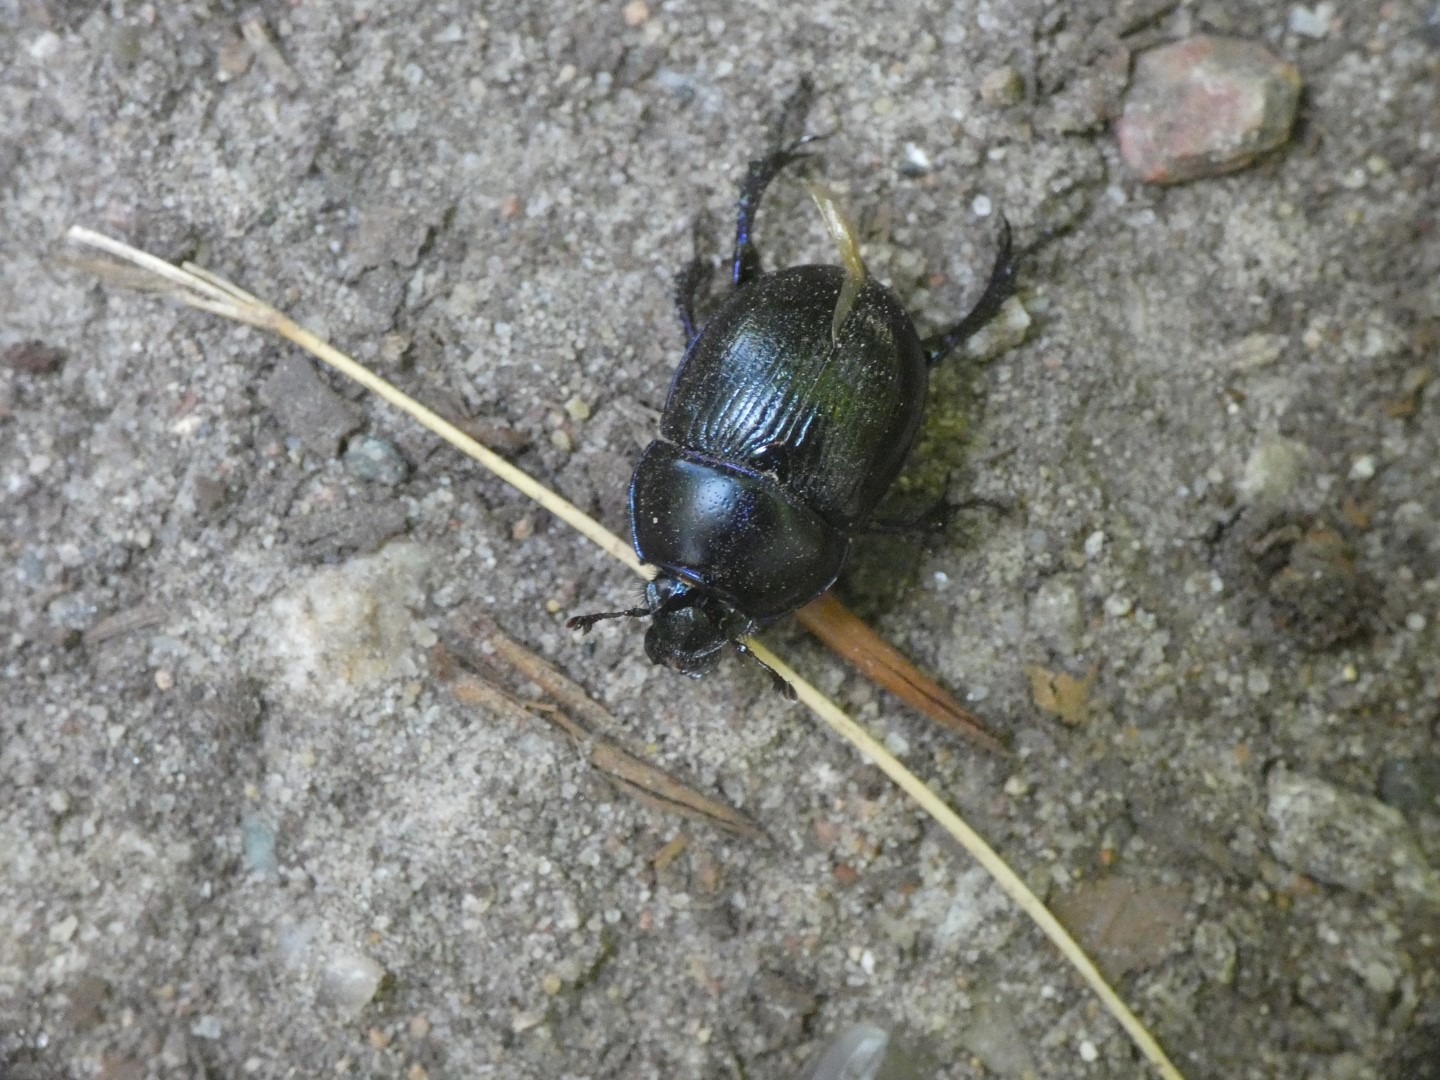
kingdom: Animalia
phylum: Arthropoda
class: Insecta
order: Coleoptera
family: Geotrupidae
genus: Anoplotrupes
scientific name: Anoplotrupes stercorosus
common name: Skovskarnbasse
